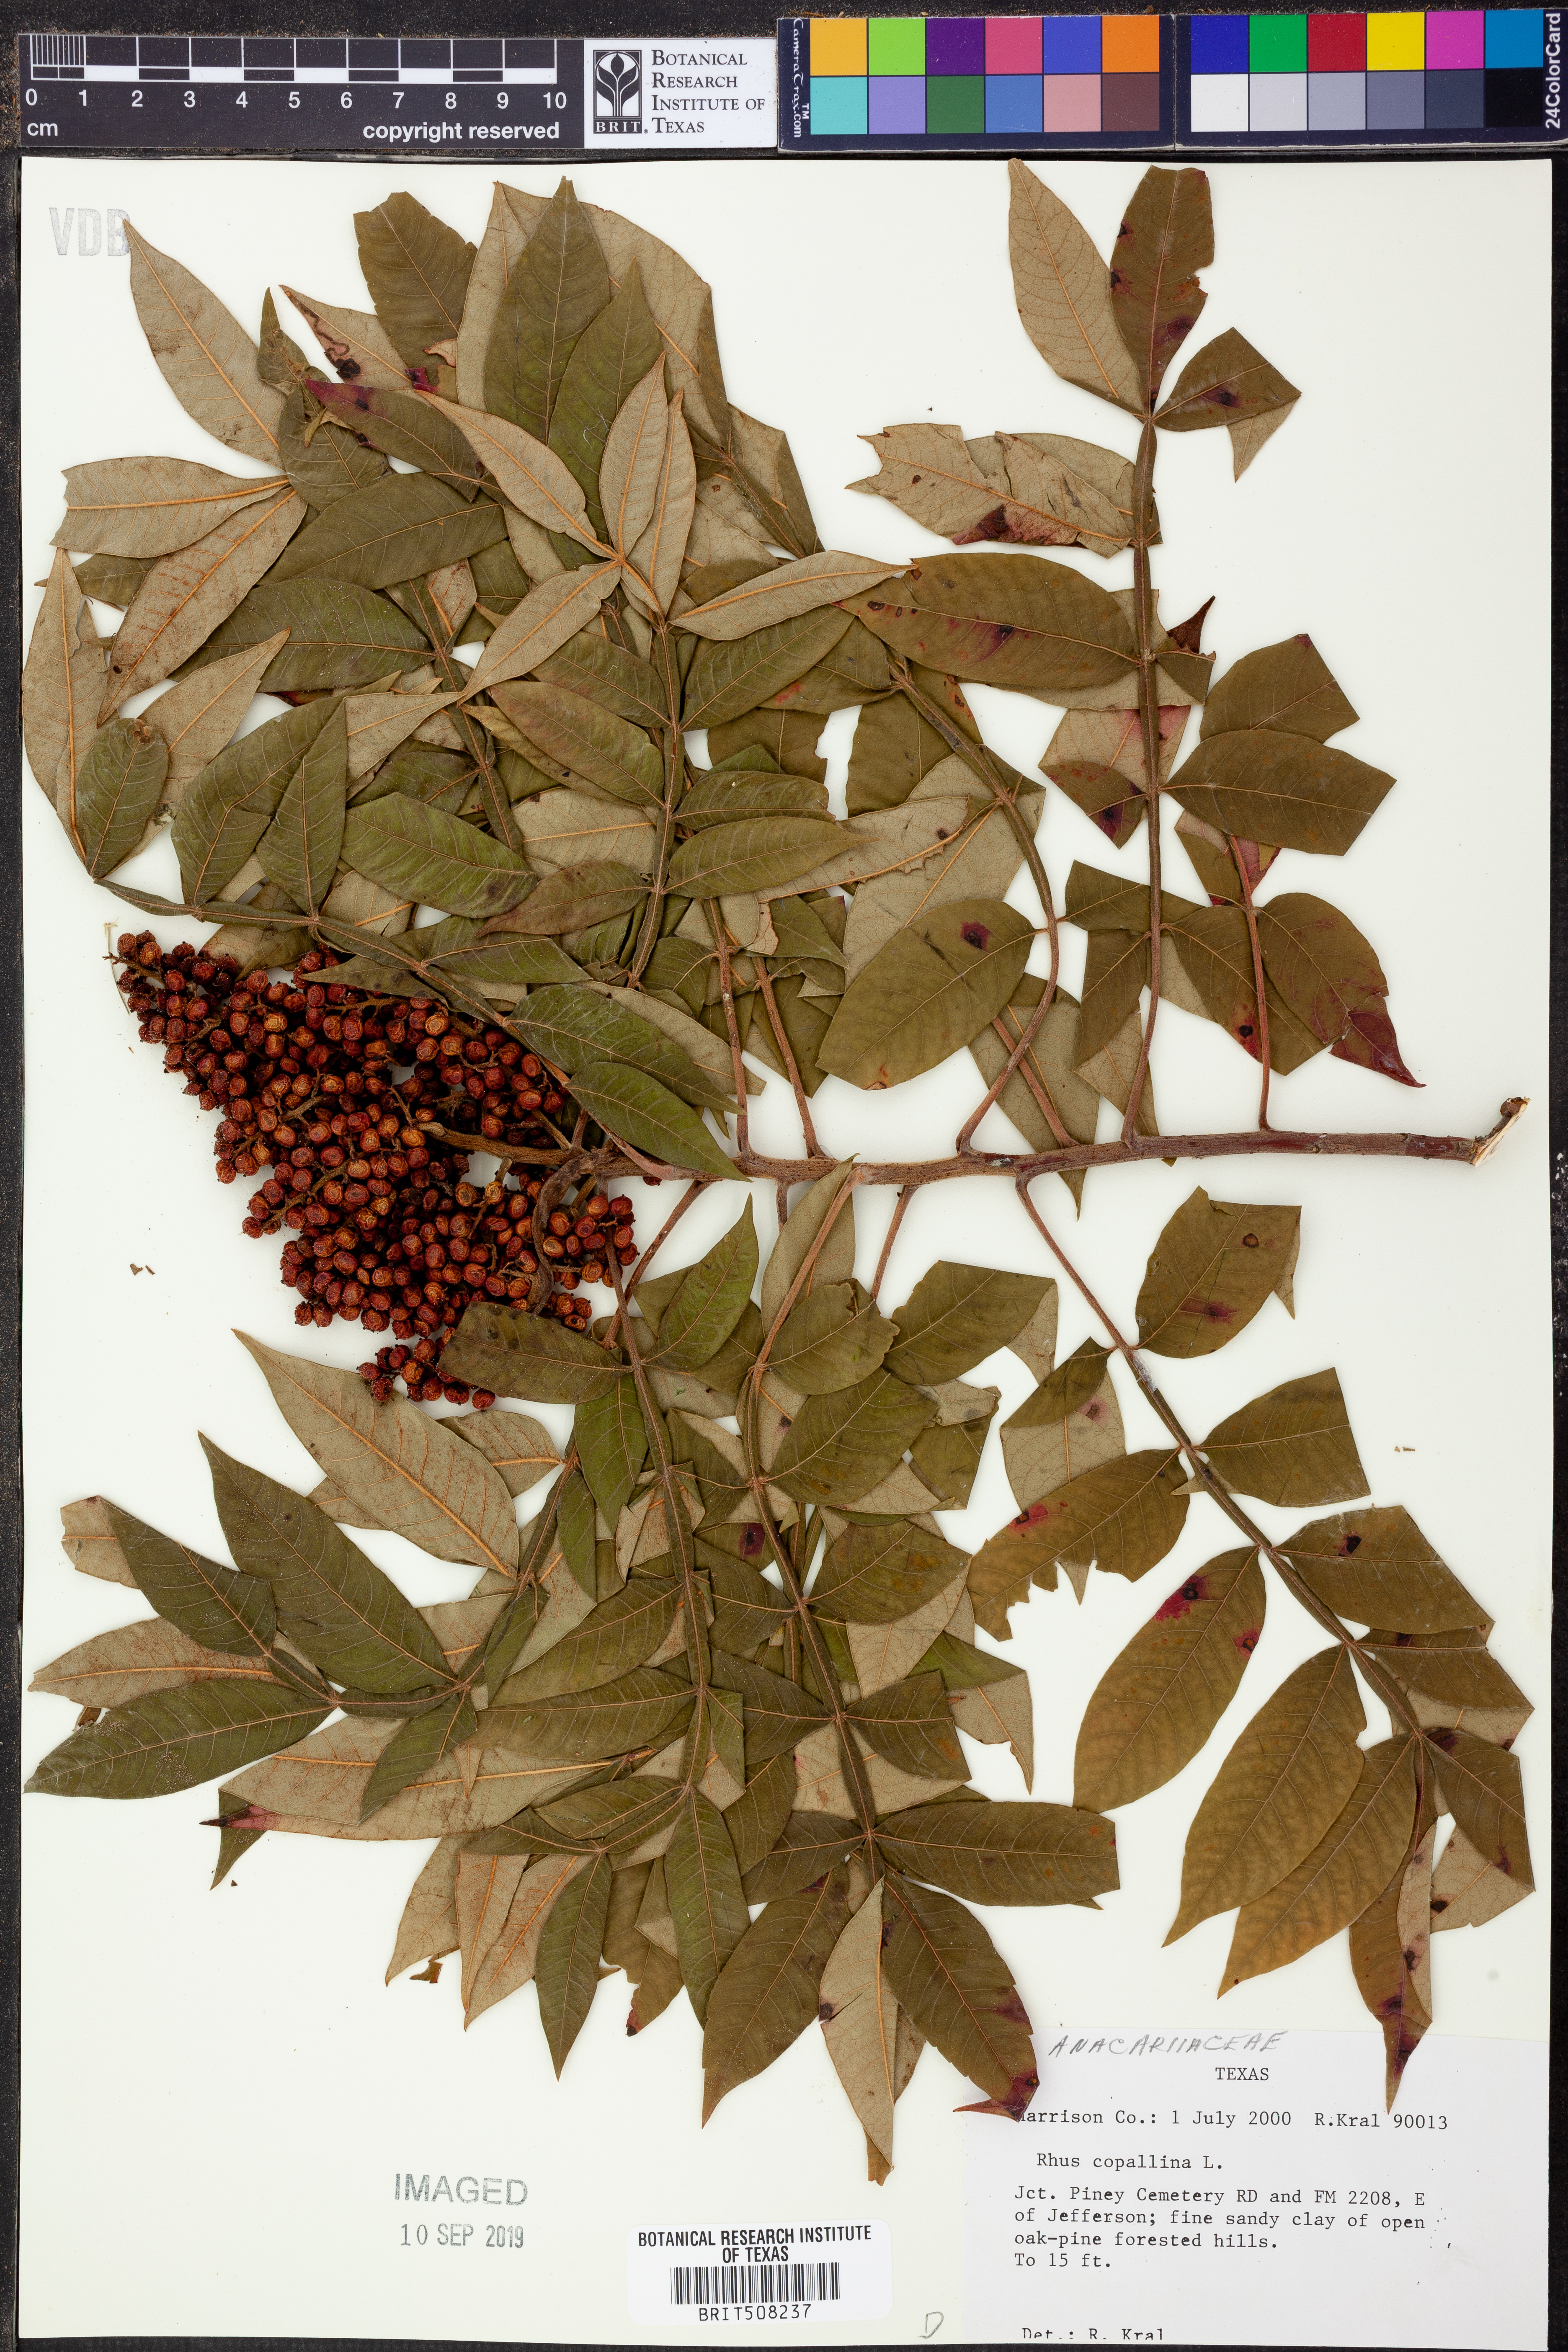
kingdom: Plantae
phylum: Tracheophyta
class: Magnoliopsida
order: Sapindales
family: Anacardiaceae
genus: Rhus
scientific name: Rhus copallina
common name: Shining sumac
